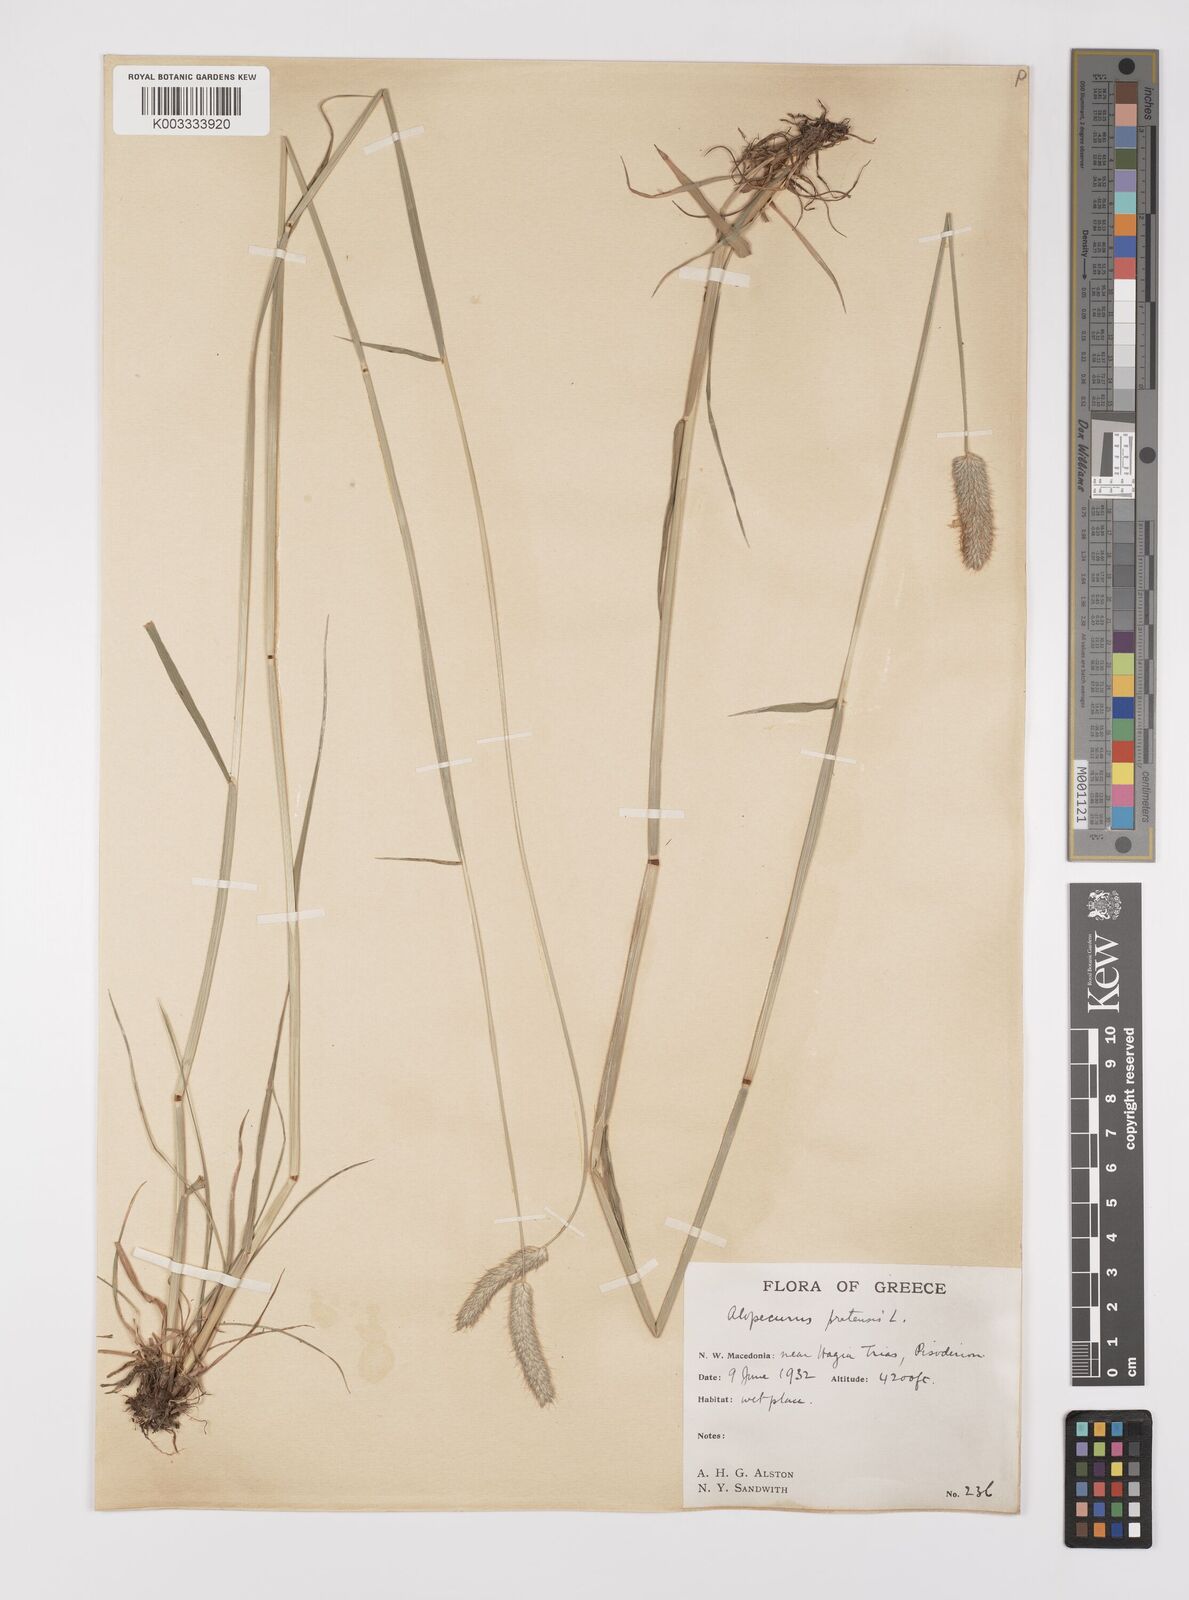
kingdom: Plantae
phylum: Tracheophyta
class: Liliopsida
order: Poales
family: Poaceae
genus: Alopecurus
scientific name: Alopecurus pratensis
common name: Meadow foxtail
